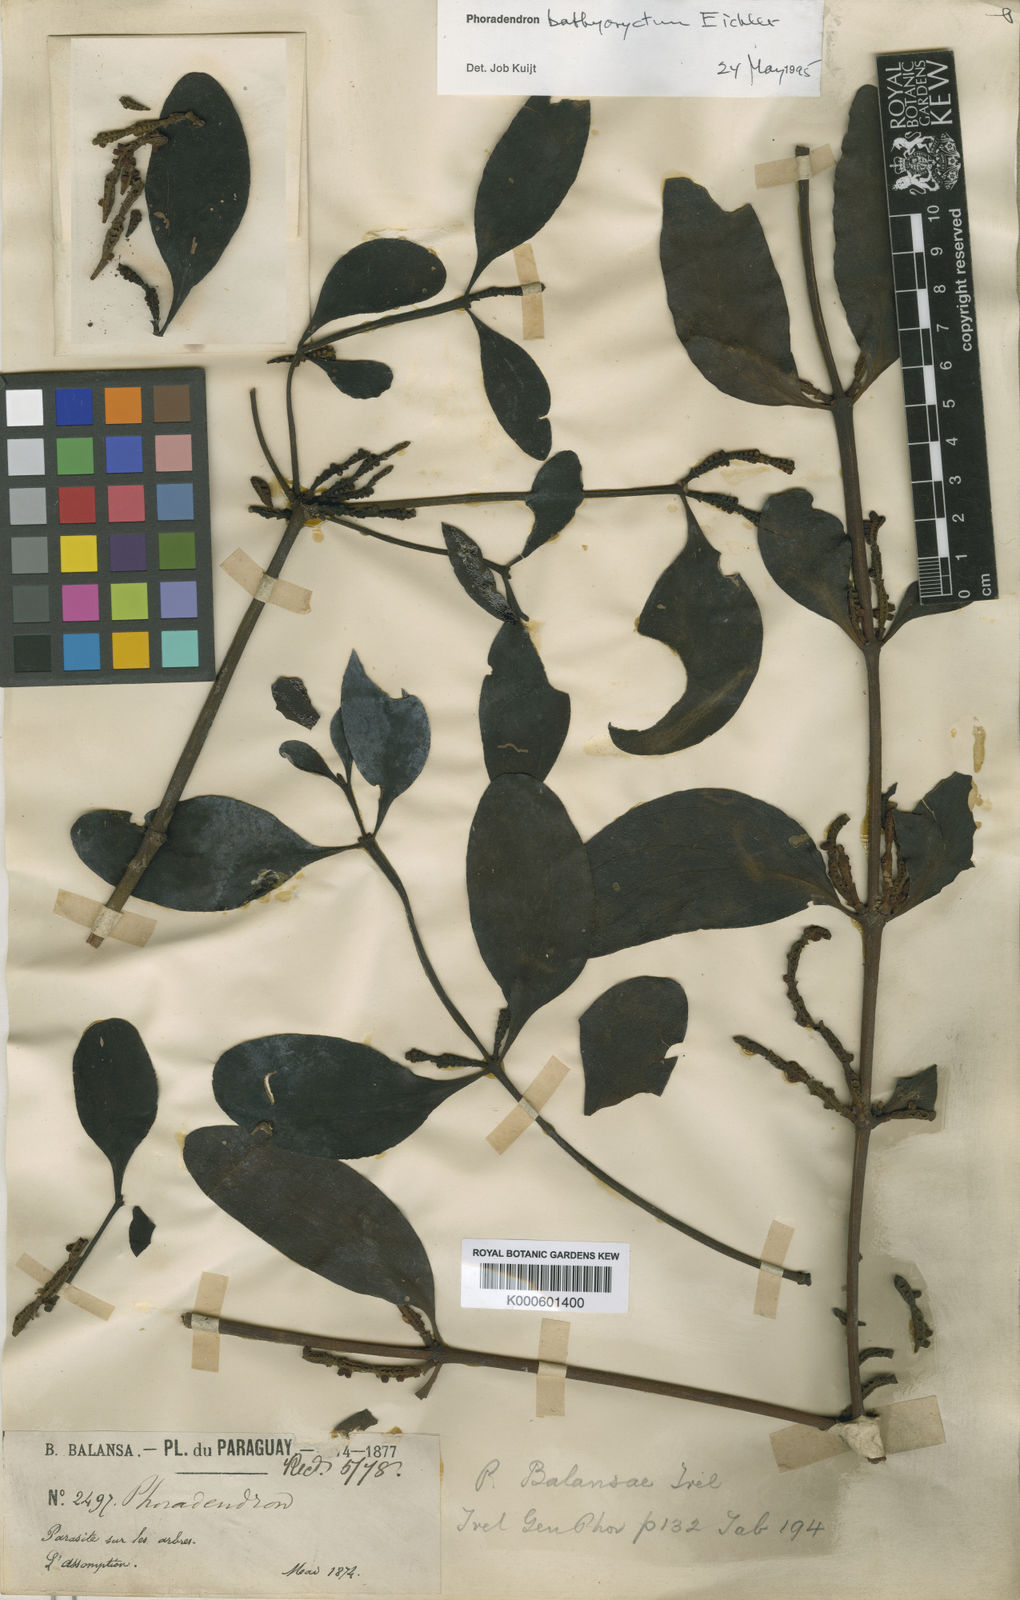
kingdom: Plantae
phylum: Tracheophyta
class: Magnoliopsida
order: Santalales
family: Viscaceae
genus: Phoradendron
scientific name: Phoradendron bathyoryctum
